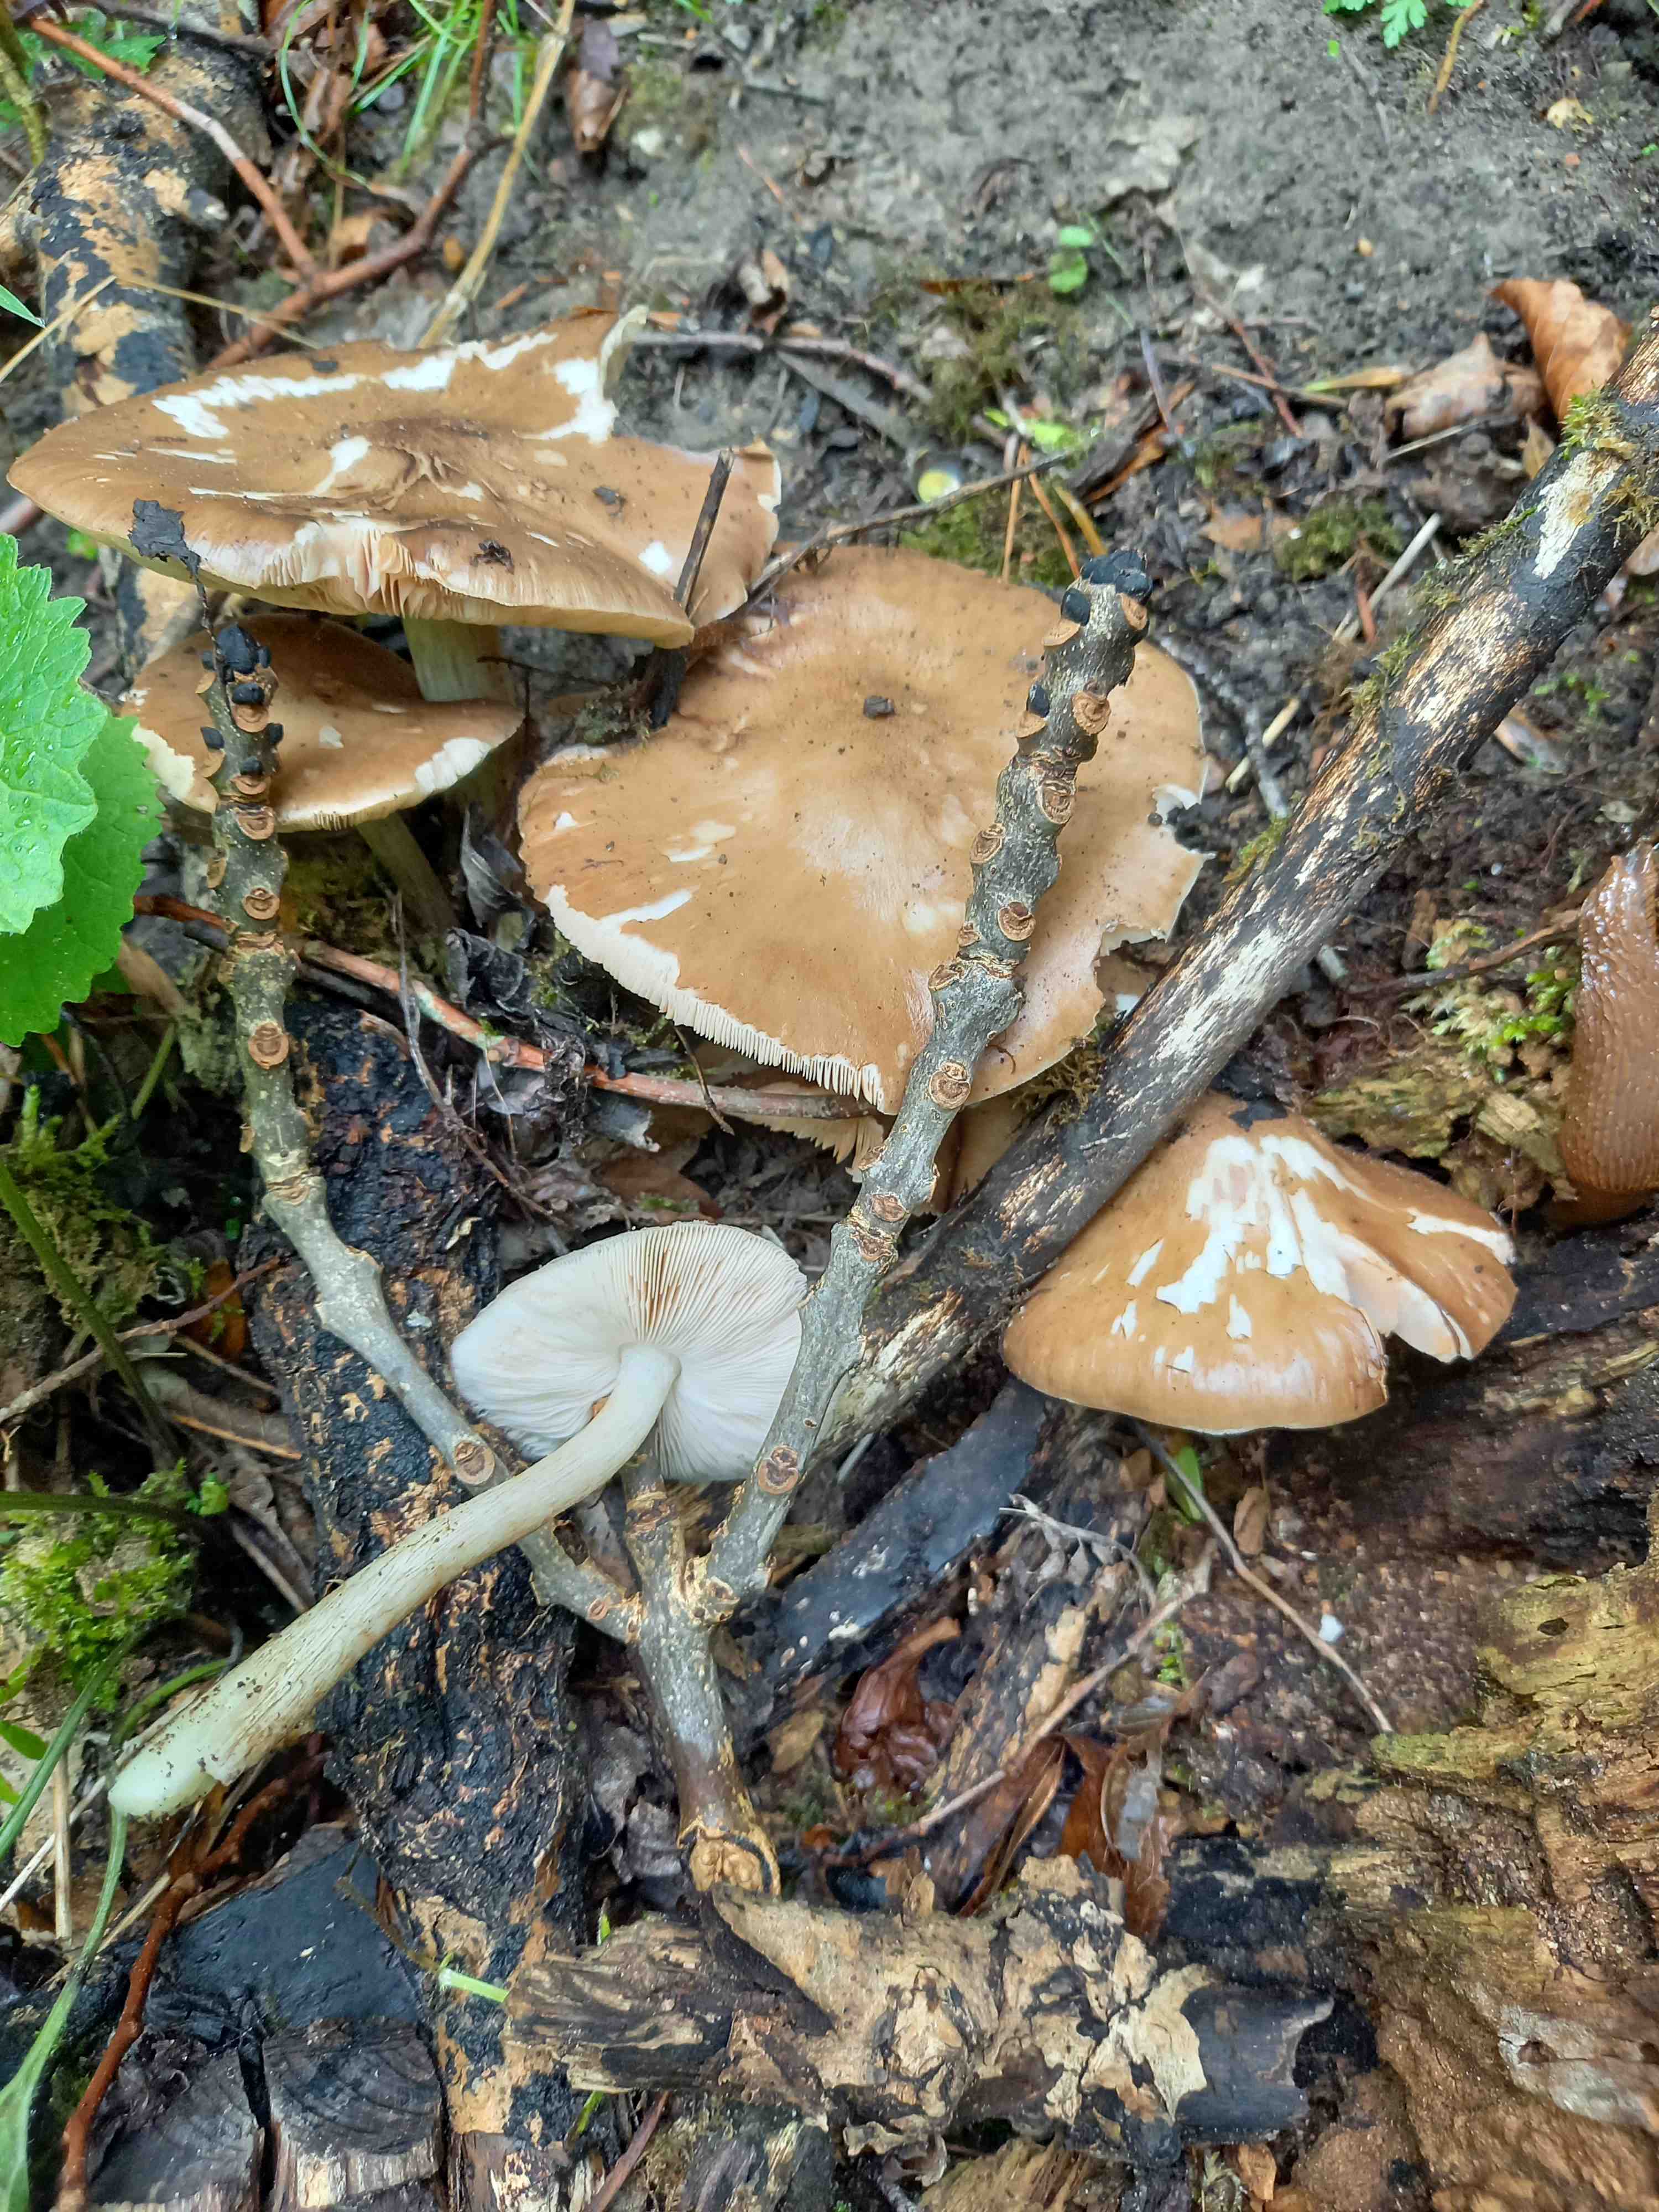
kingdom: Fungi
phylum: Basidiomycota
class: Agaricomycetes
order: Agaricales
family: Pluteaceae
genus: Pluteus
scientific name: Pluteus cervinus
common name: sodfarvet skærmhat
